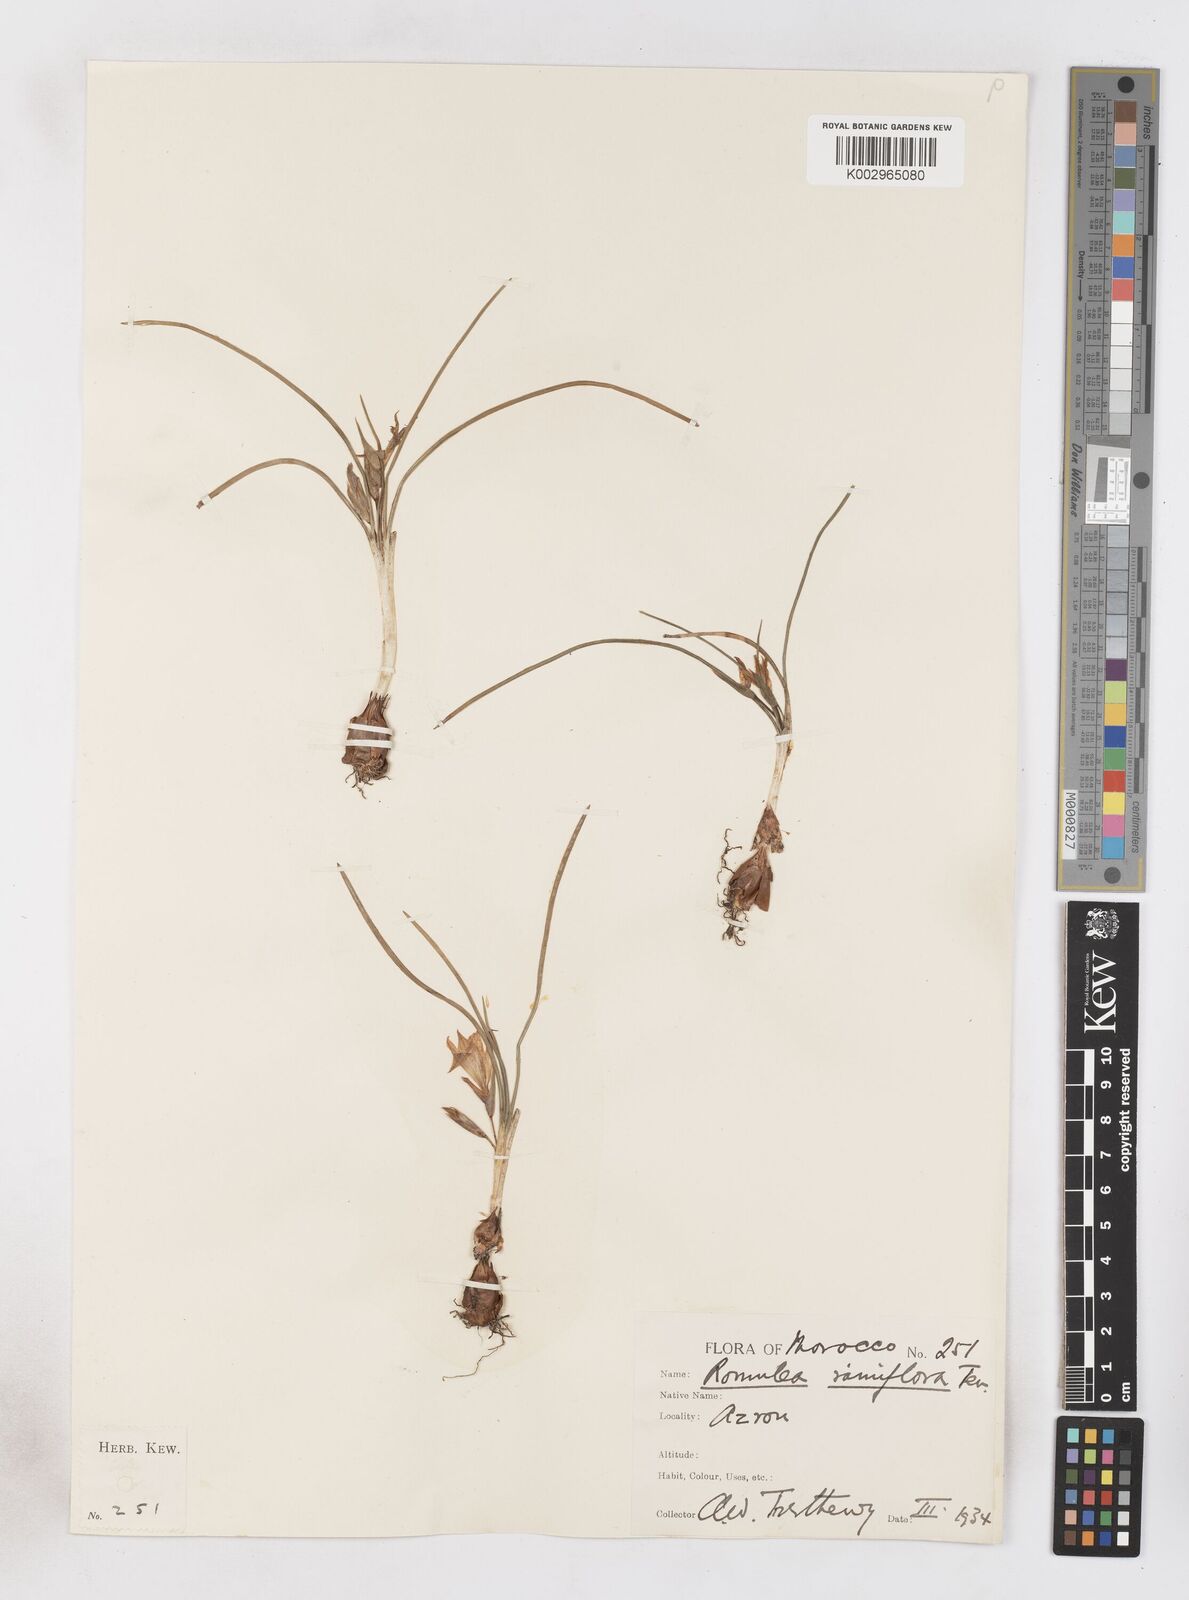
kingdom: Plantae
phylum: Tracheophyta
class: Liliopsida
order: Asparagales
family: Iridaceae
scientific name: Iridaceae
